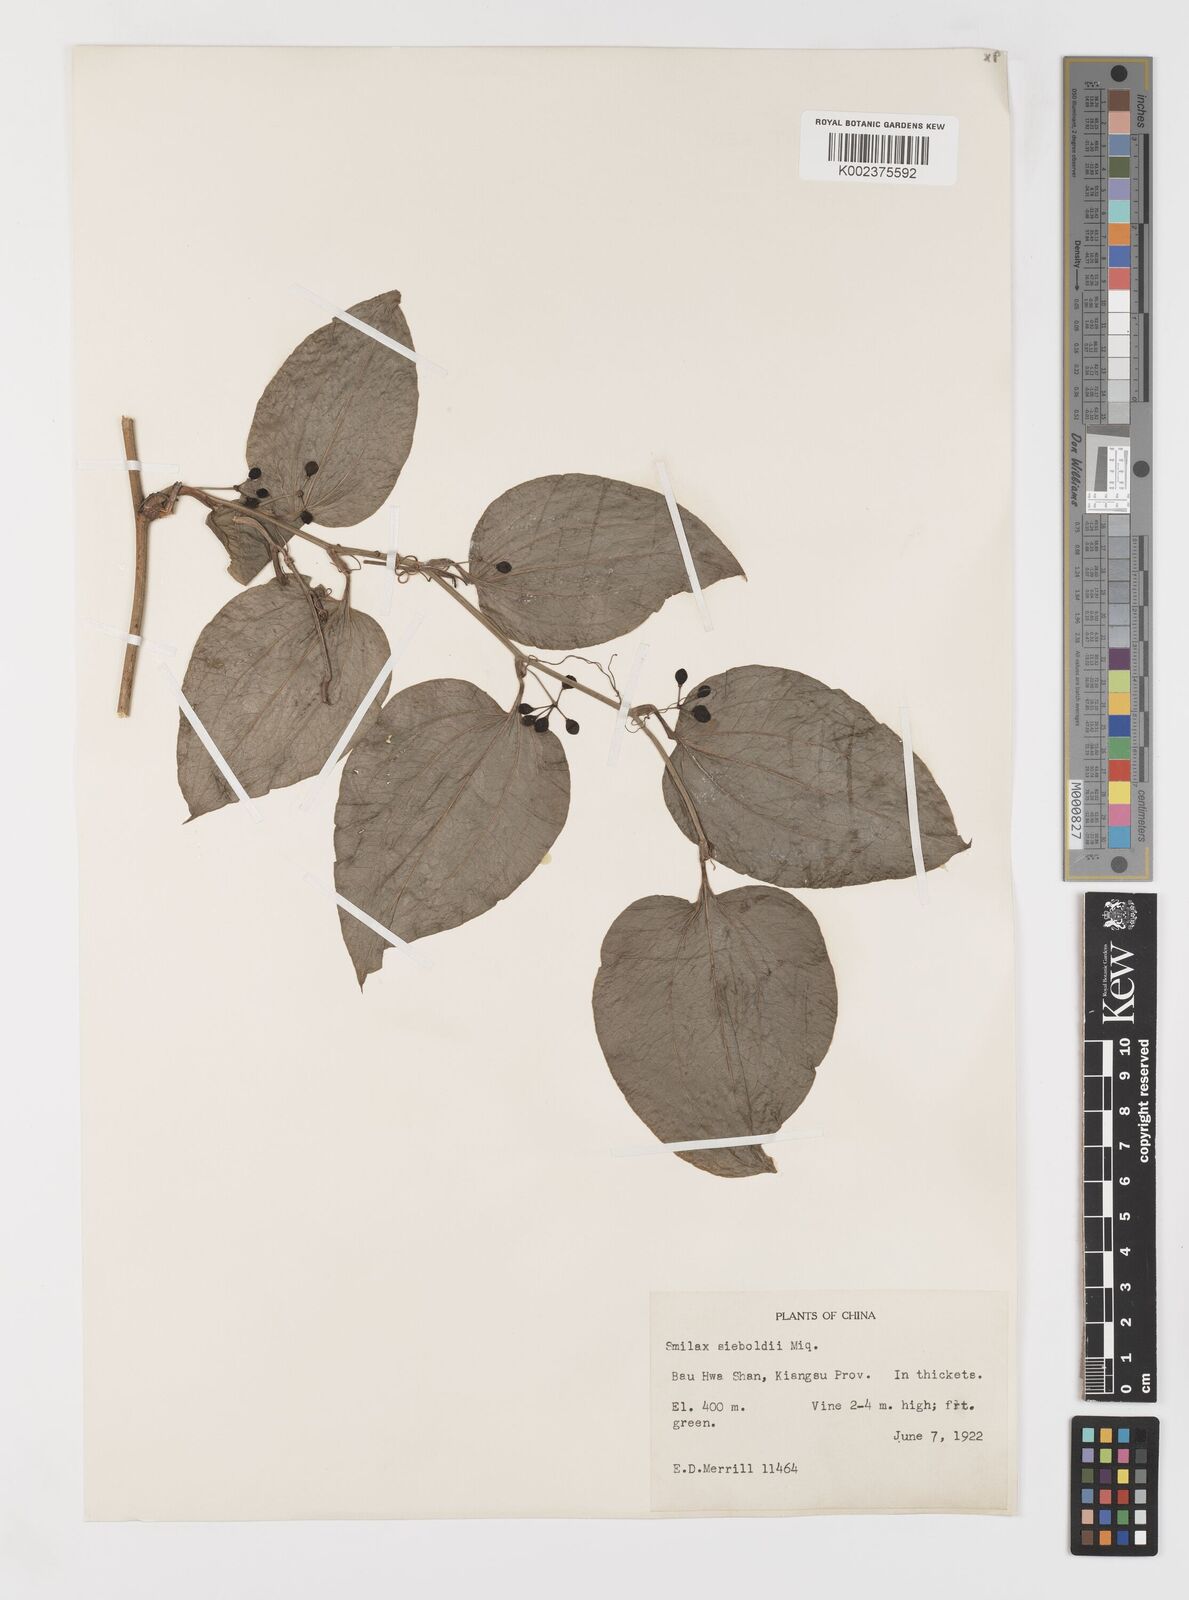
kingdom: Plantae
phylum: Tracheophyta
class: Liliopsida
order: Liliales
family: Smilacaceae
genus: Smilax
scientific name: Smilax sieboldii
